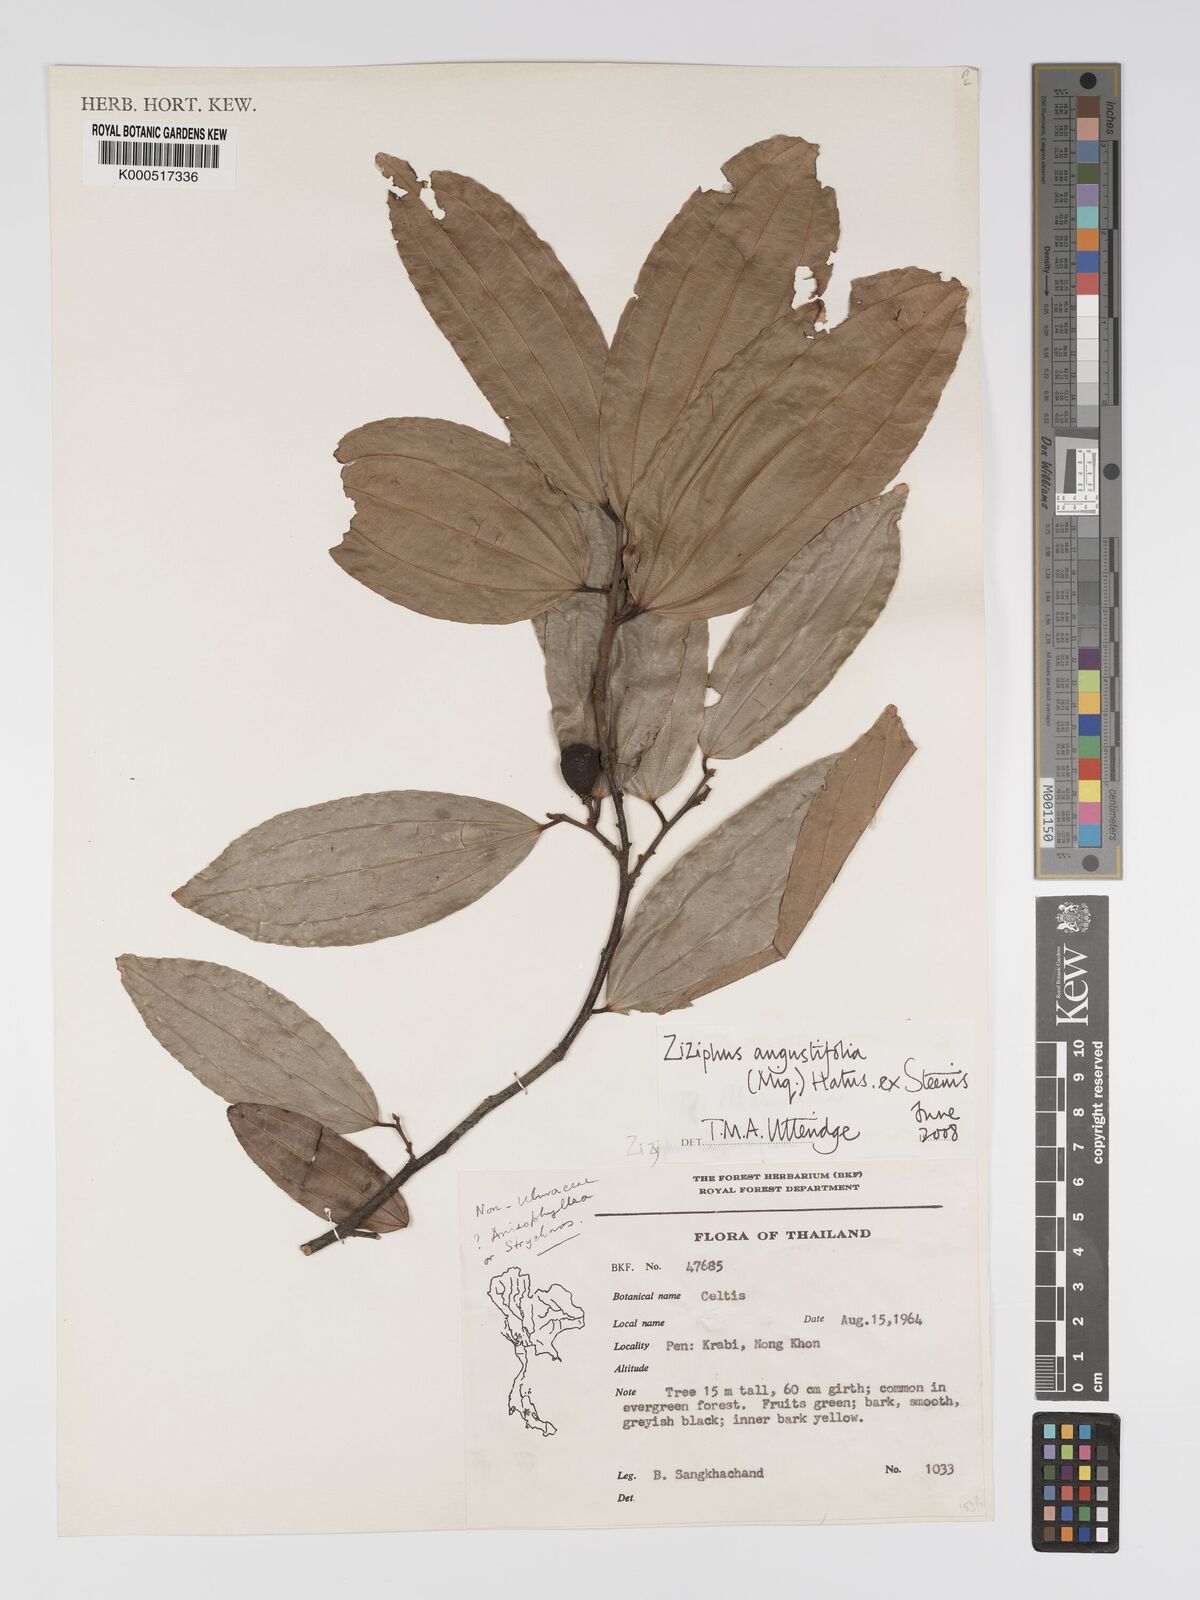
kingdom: Plantae
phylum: Tracheophyta
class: Magnoliopsida
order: Rosales
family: Rhamnaceae
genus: Ziziphus
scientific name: Ziziphus angustifolia
